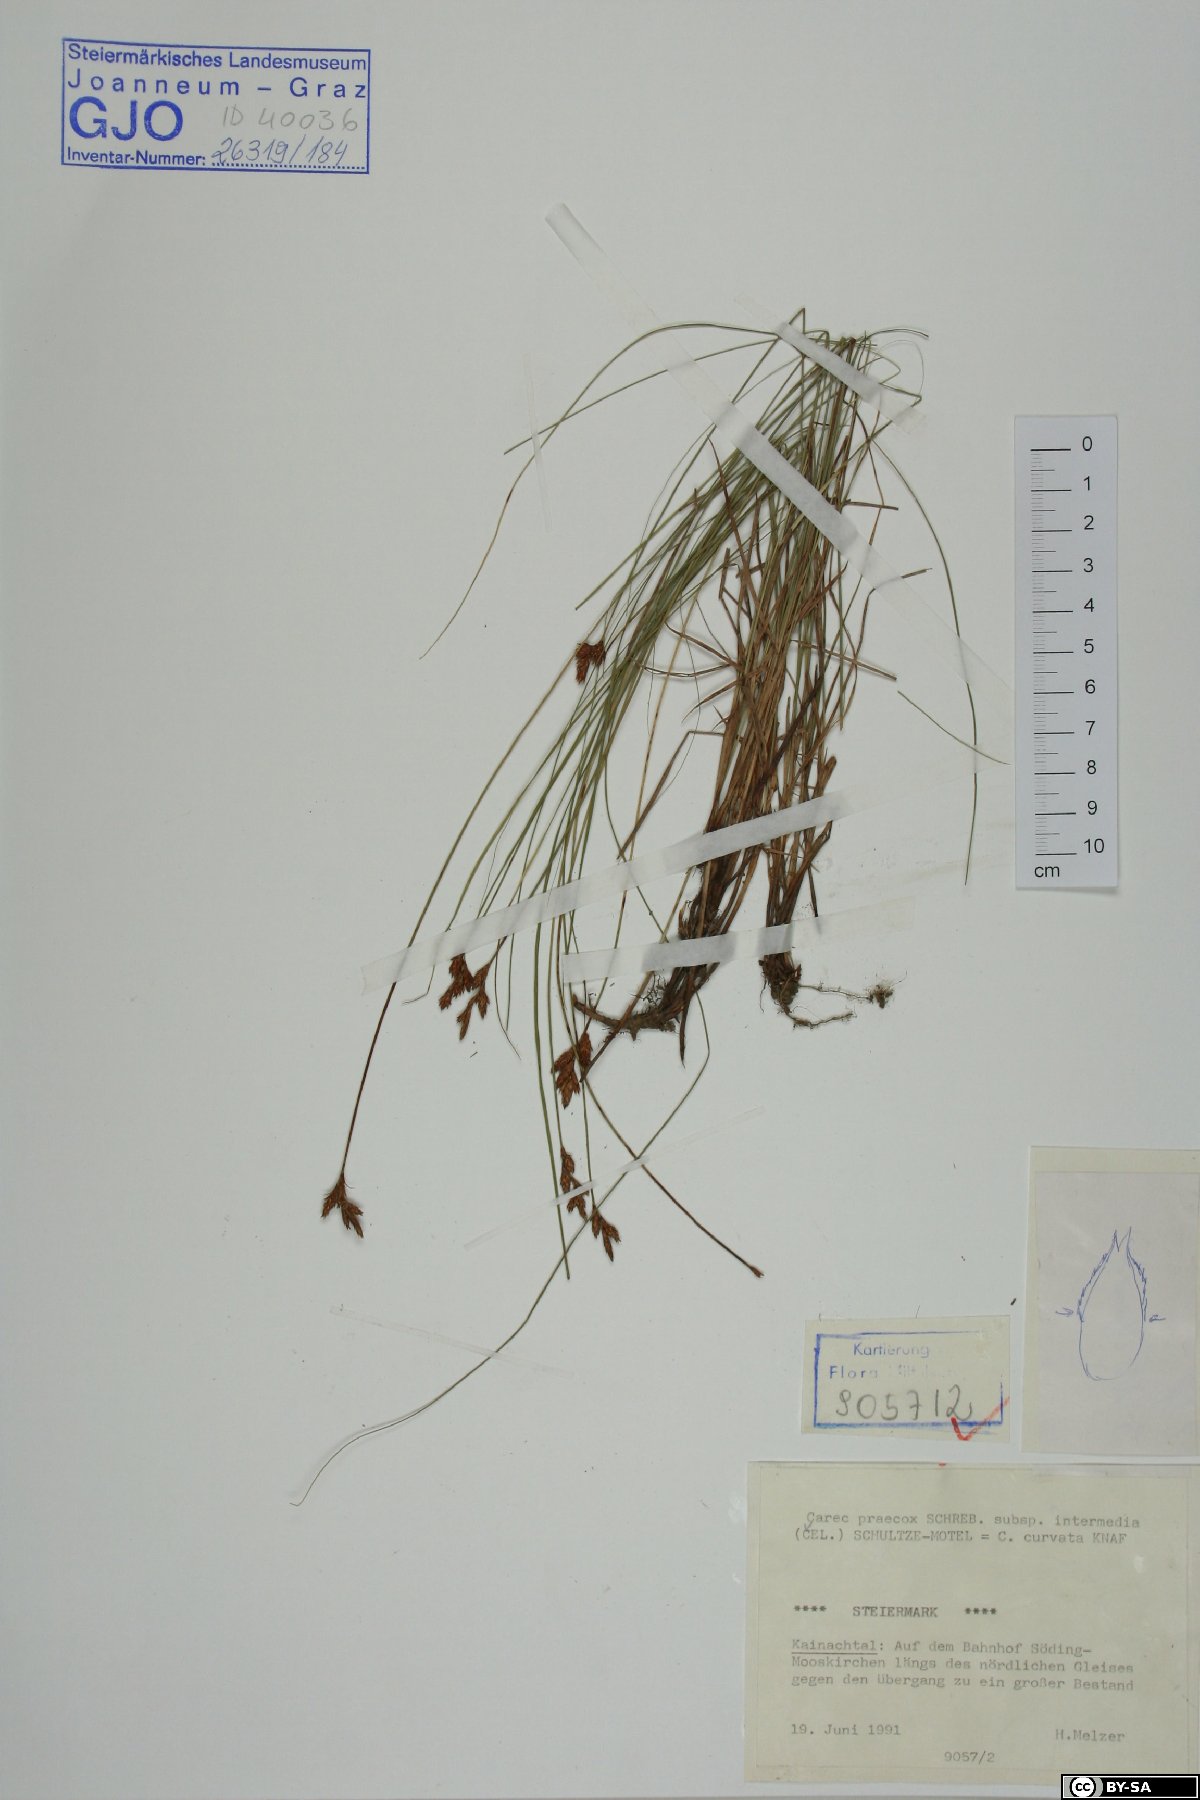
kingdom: Plantae
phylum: Tracheophyta
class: Liliopsida
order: Poales
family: Cyperaceae
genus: Carex
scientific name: Carex curvata
